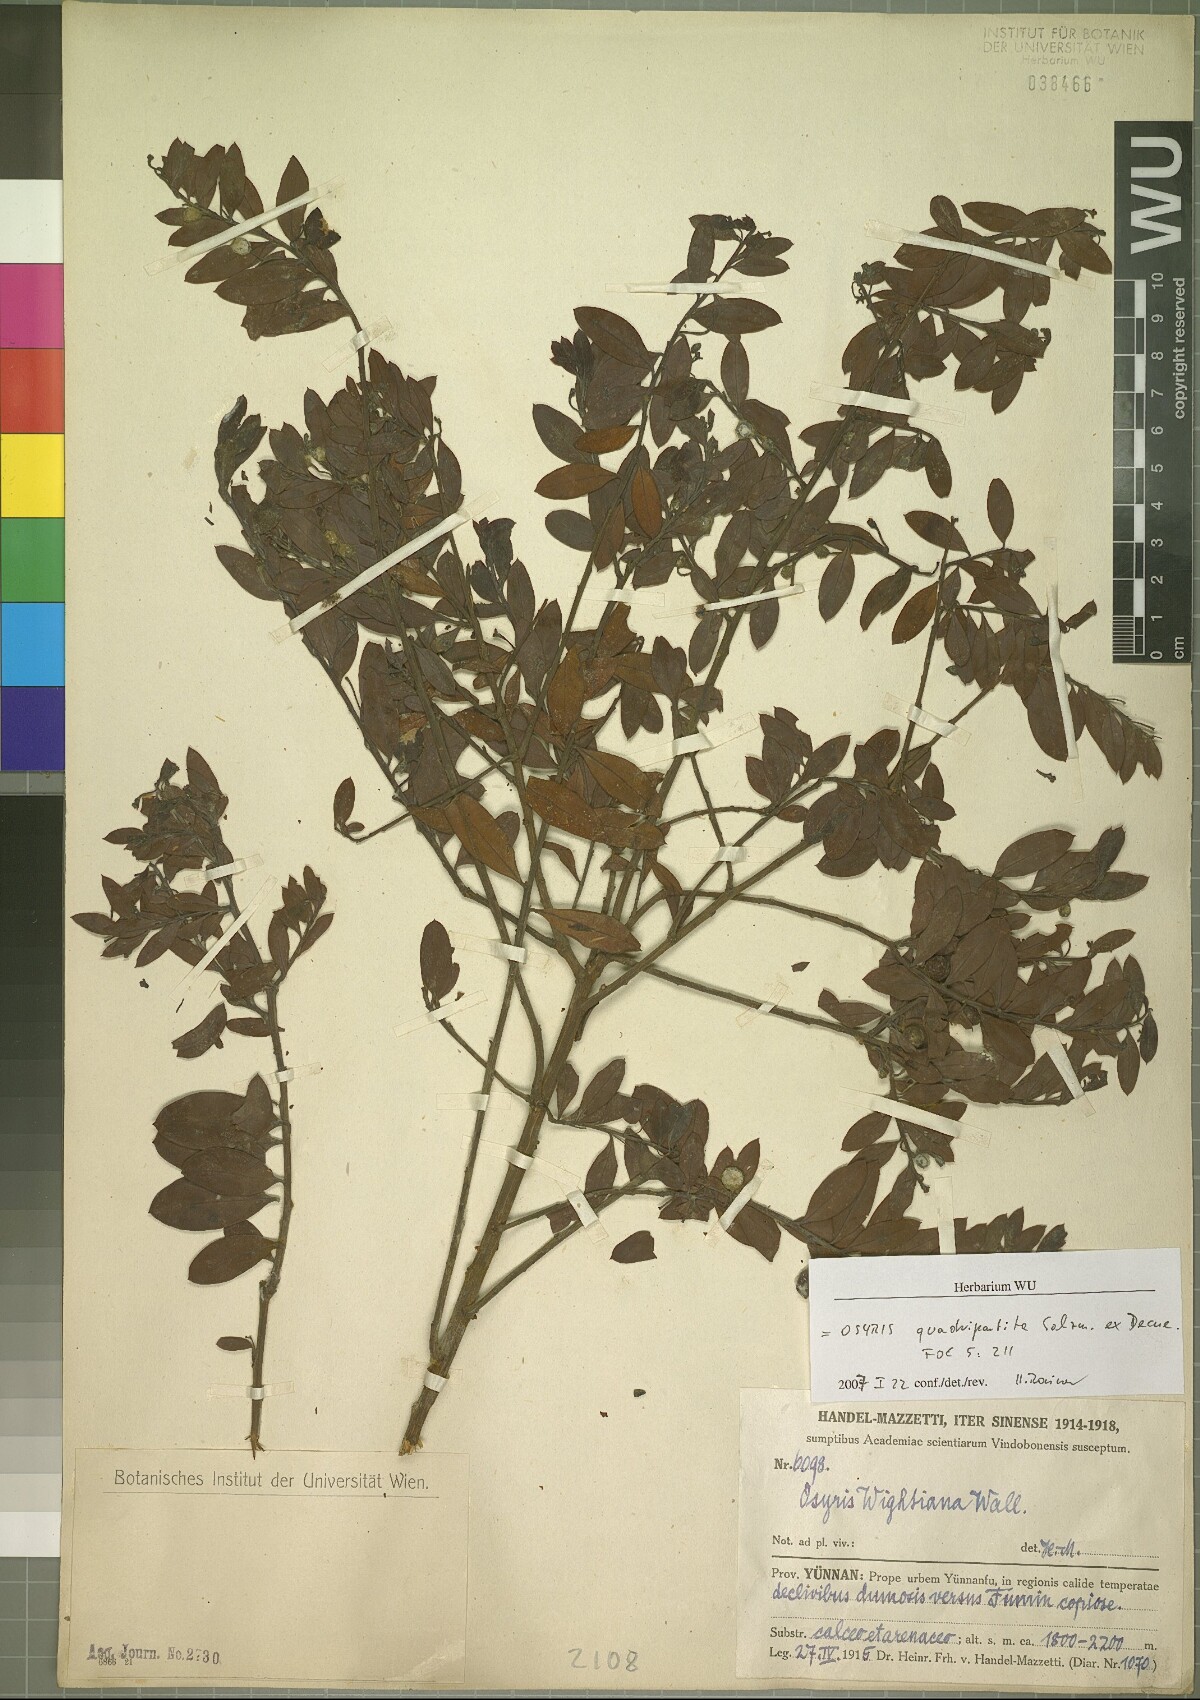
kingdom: Plantae
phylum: Tracheophyta
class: Magnoliopsida
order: Santalales
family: Santalaceae
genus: Osyris
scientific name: Osyris quadripartita
